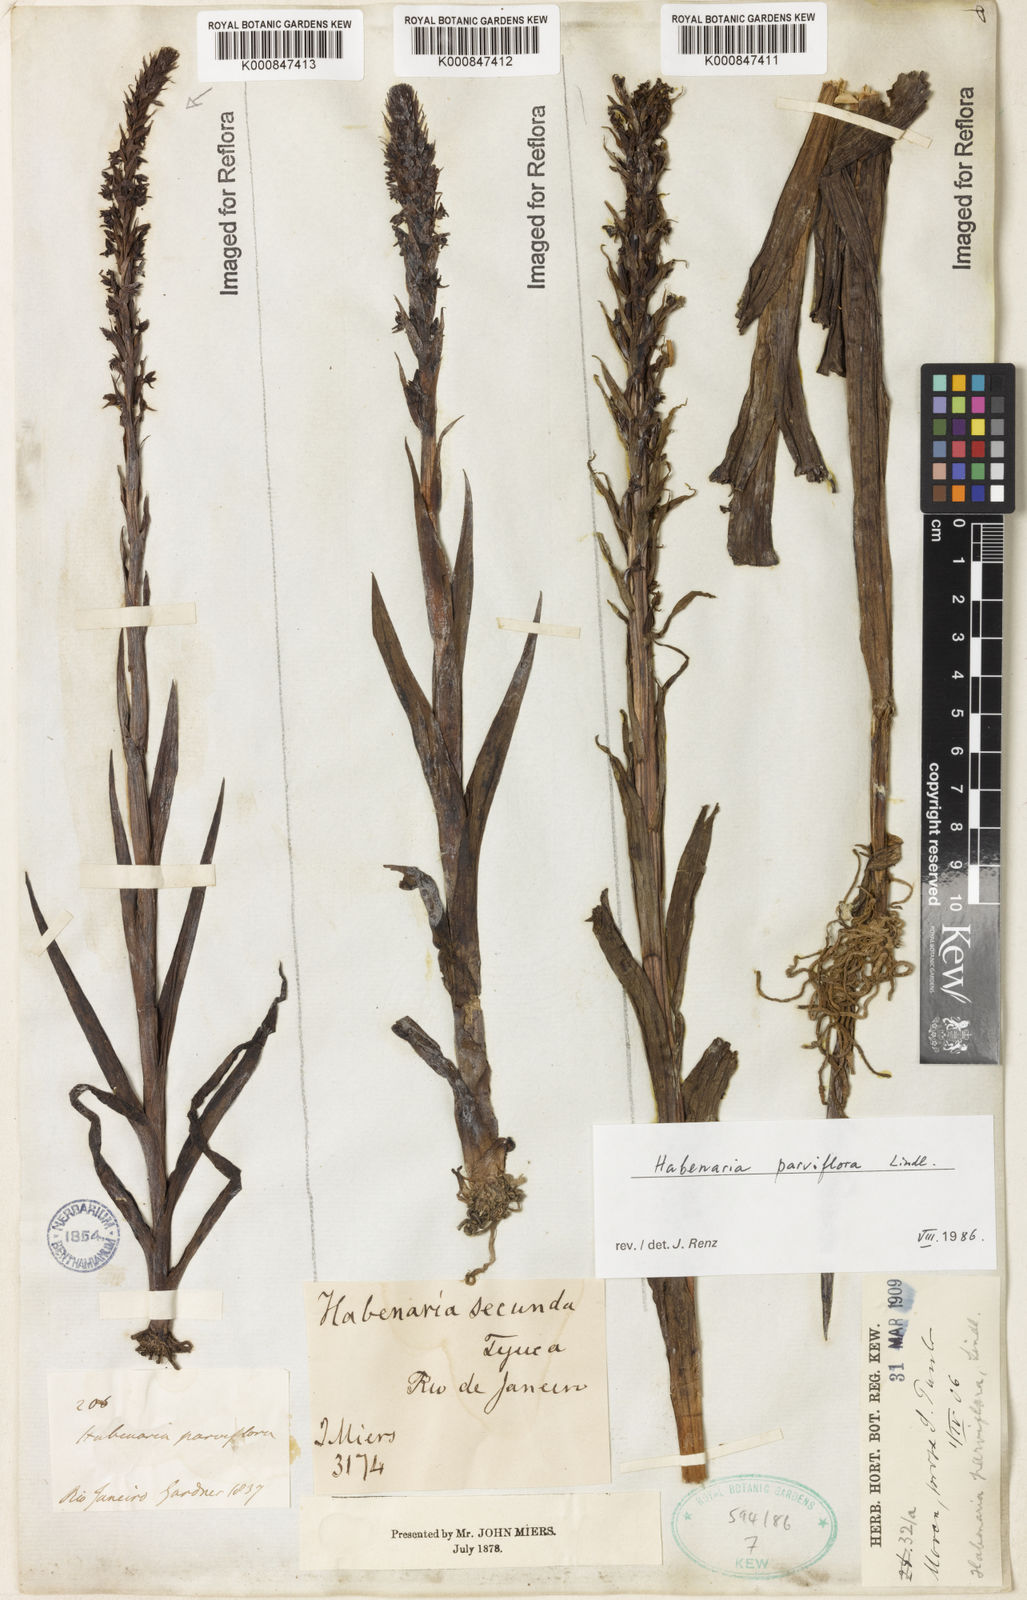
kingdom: Plantae
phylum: Tracheophyta
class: Liliopsida
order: Asparagales
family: Orchidaceae
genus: Habenaria
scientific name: Habenaria parviflora
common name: Small flowered habenaria
